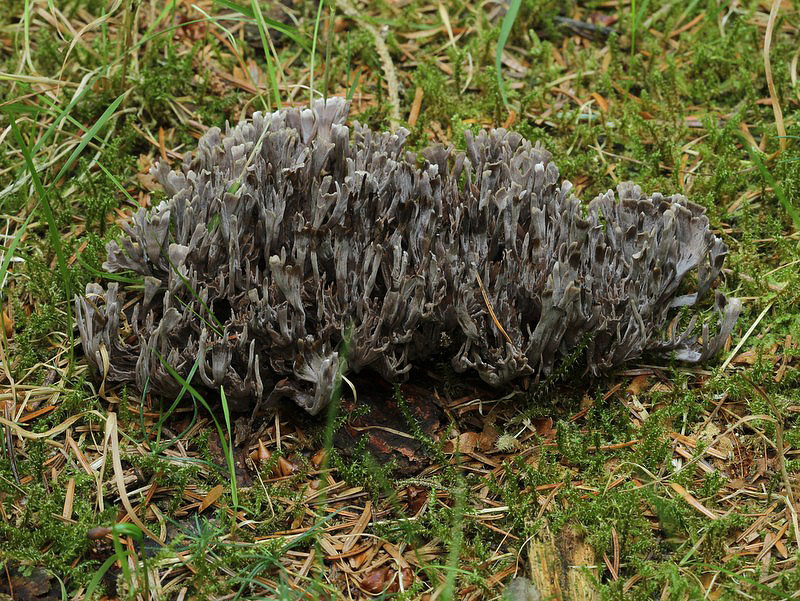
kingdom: Fungi
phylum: Basidiomycota
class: Agaricomycetes
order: Thelephorales
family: Thelephoraceae
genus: Thelephora
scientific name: Thelephora palmata
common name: grenet frynsesvamp
